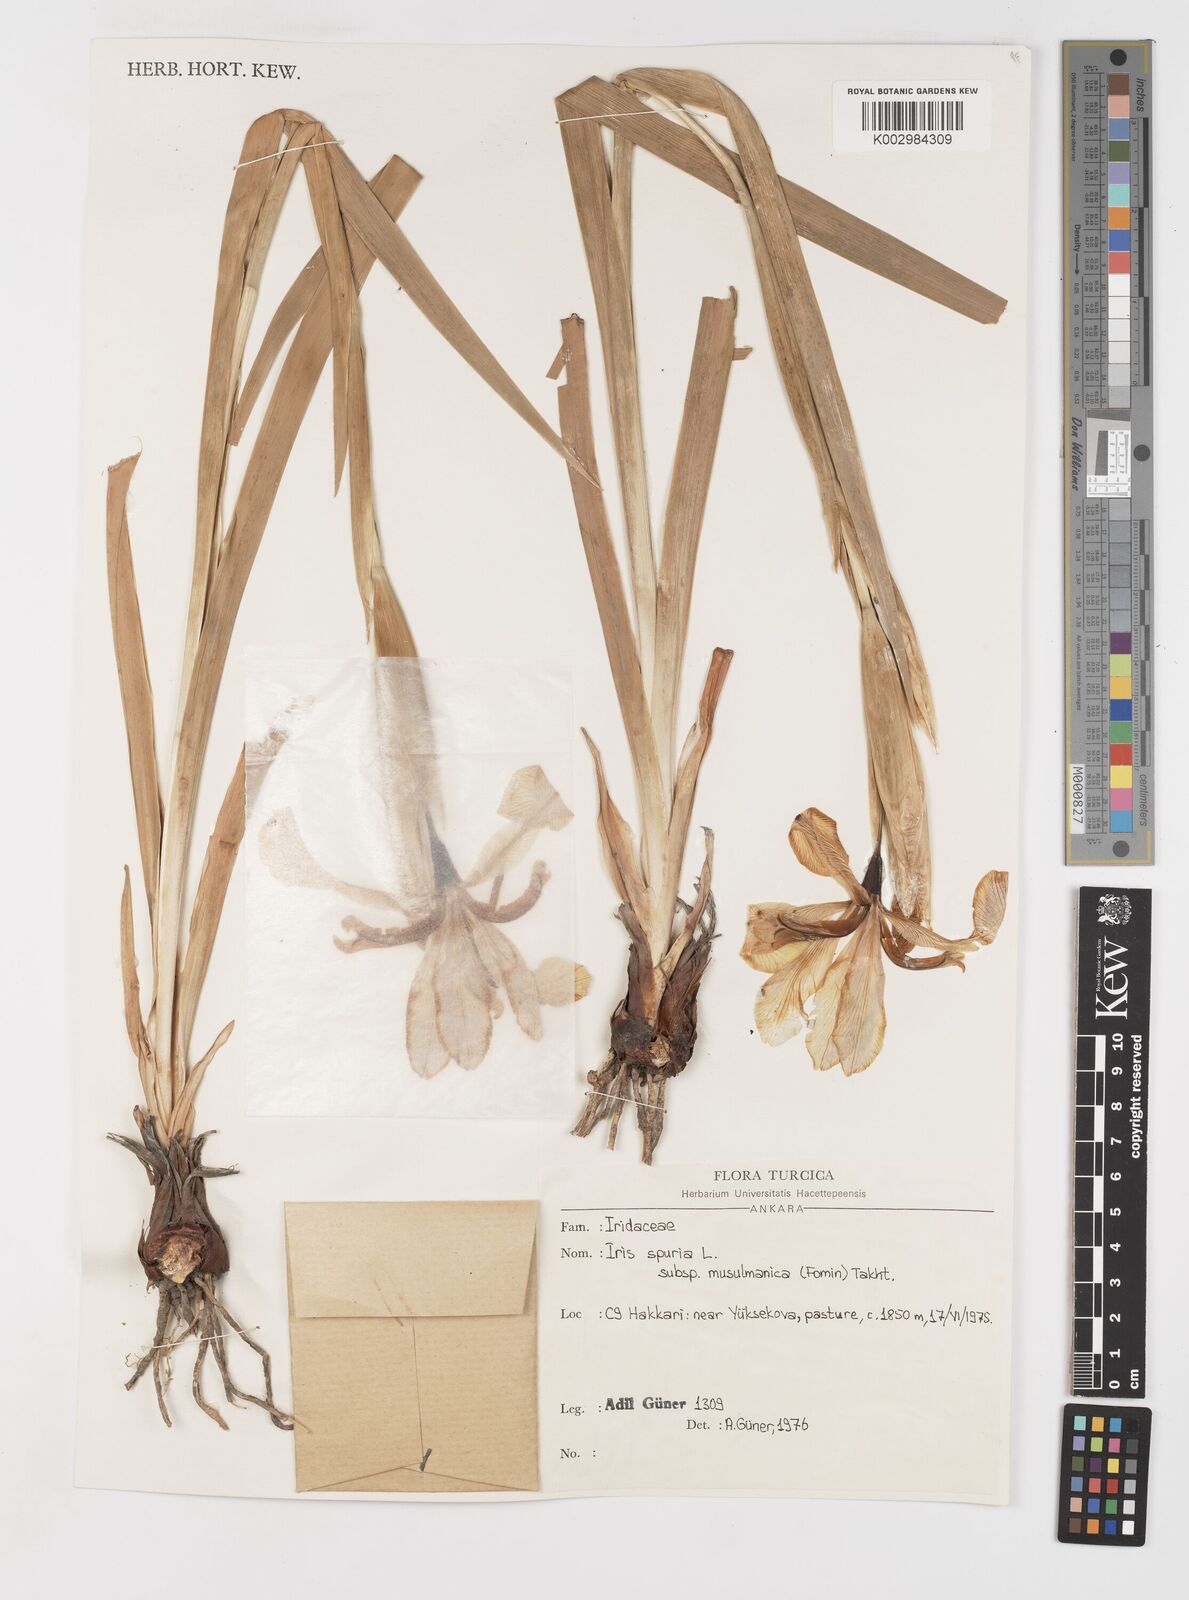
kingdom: Plantae
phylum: Tracheophyta
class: Liliopsida
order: Asparagales
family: Iridaceae
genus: Iris
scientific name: Iris spuria
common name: Blue iris
